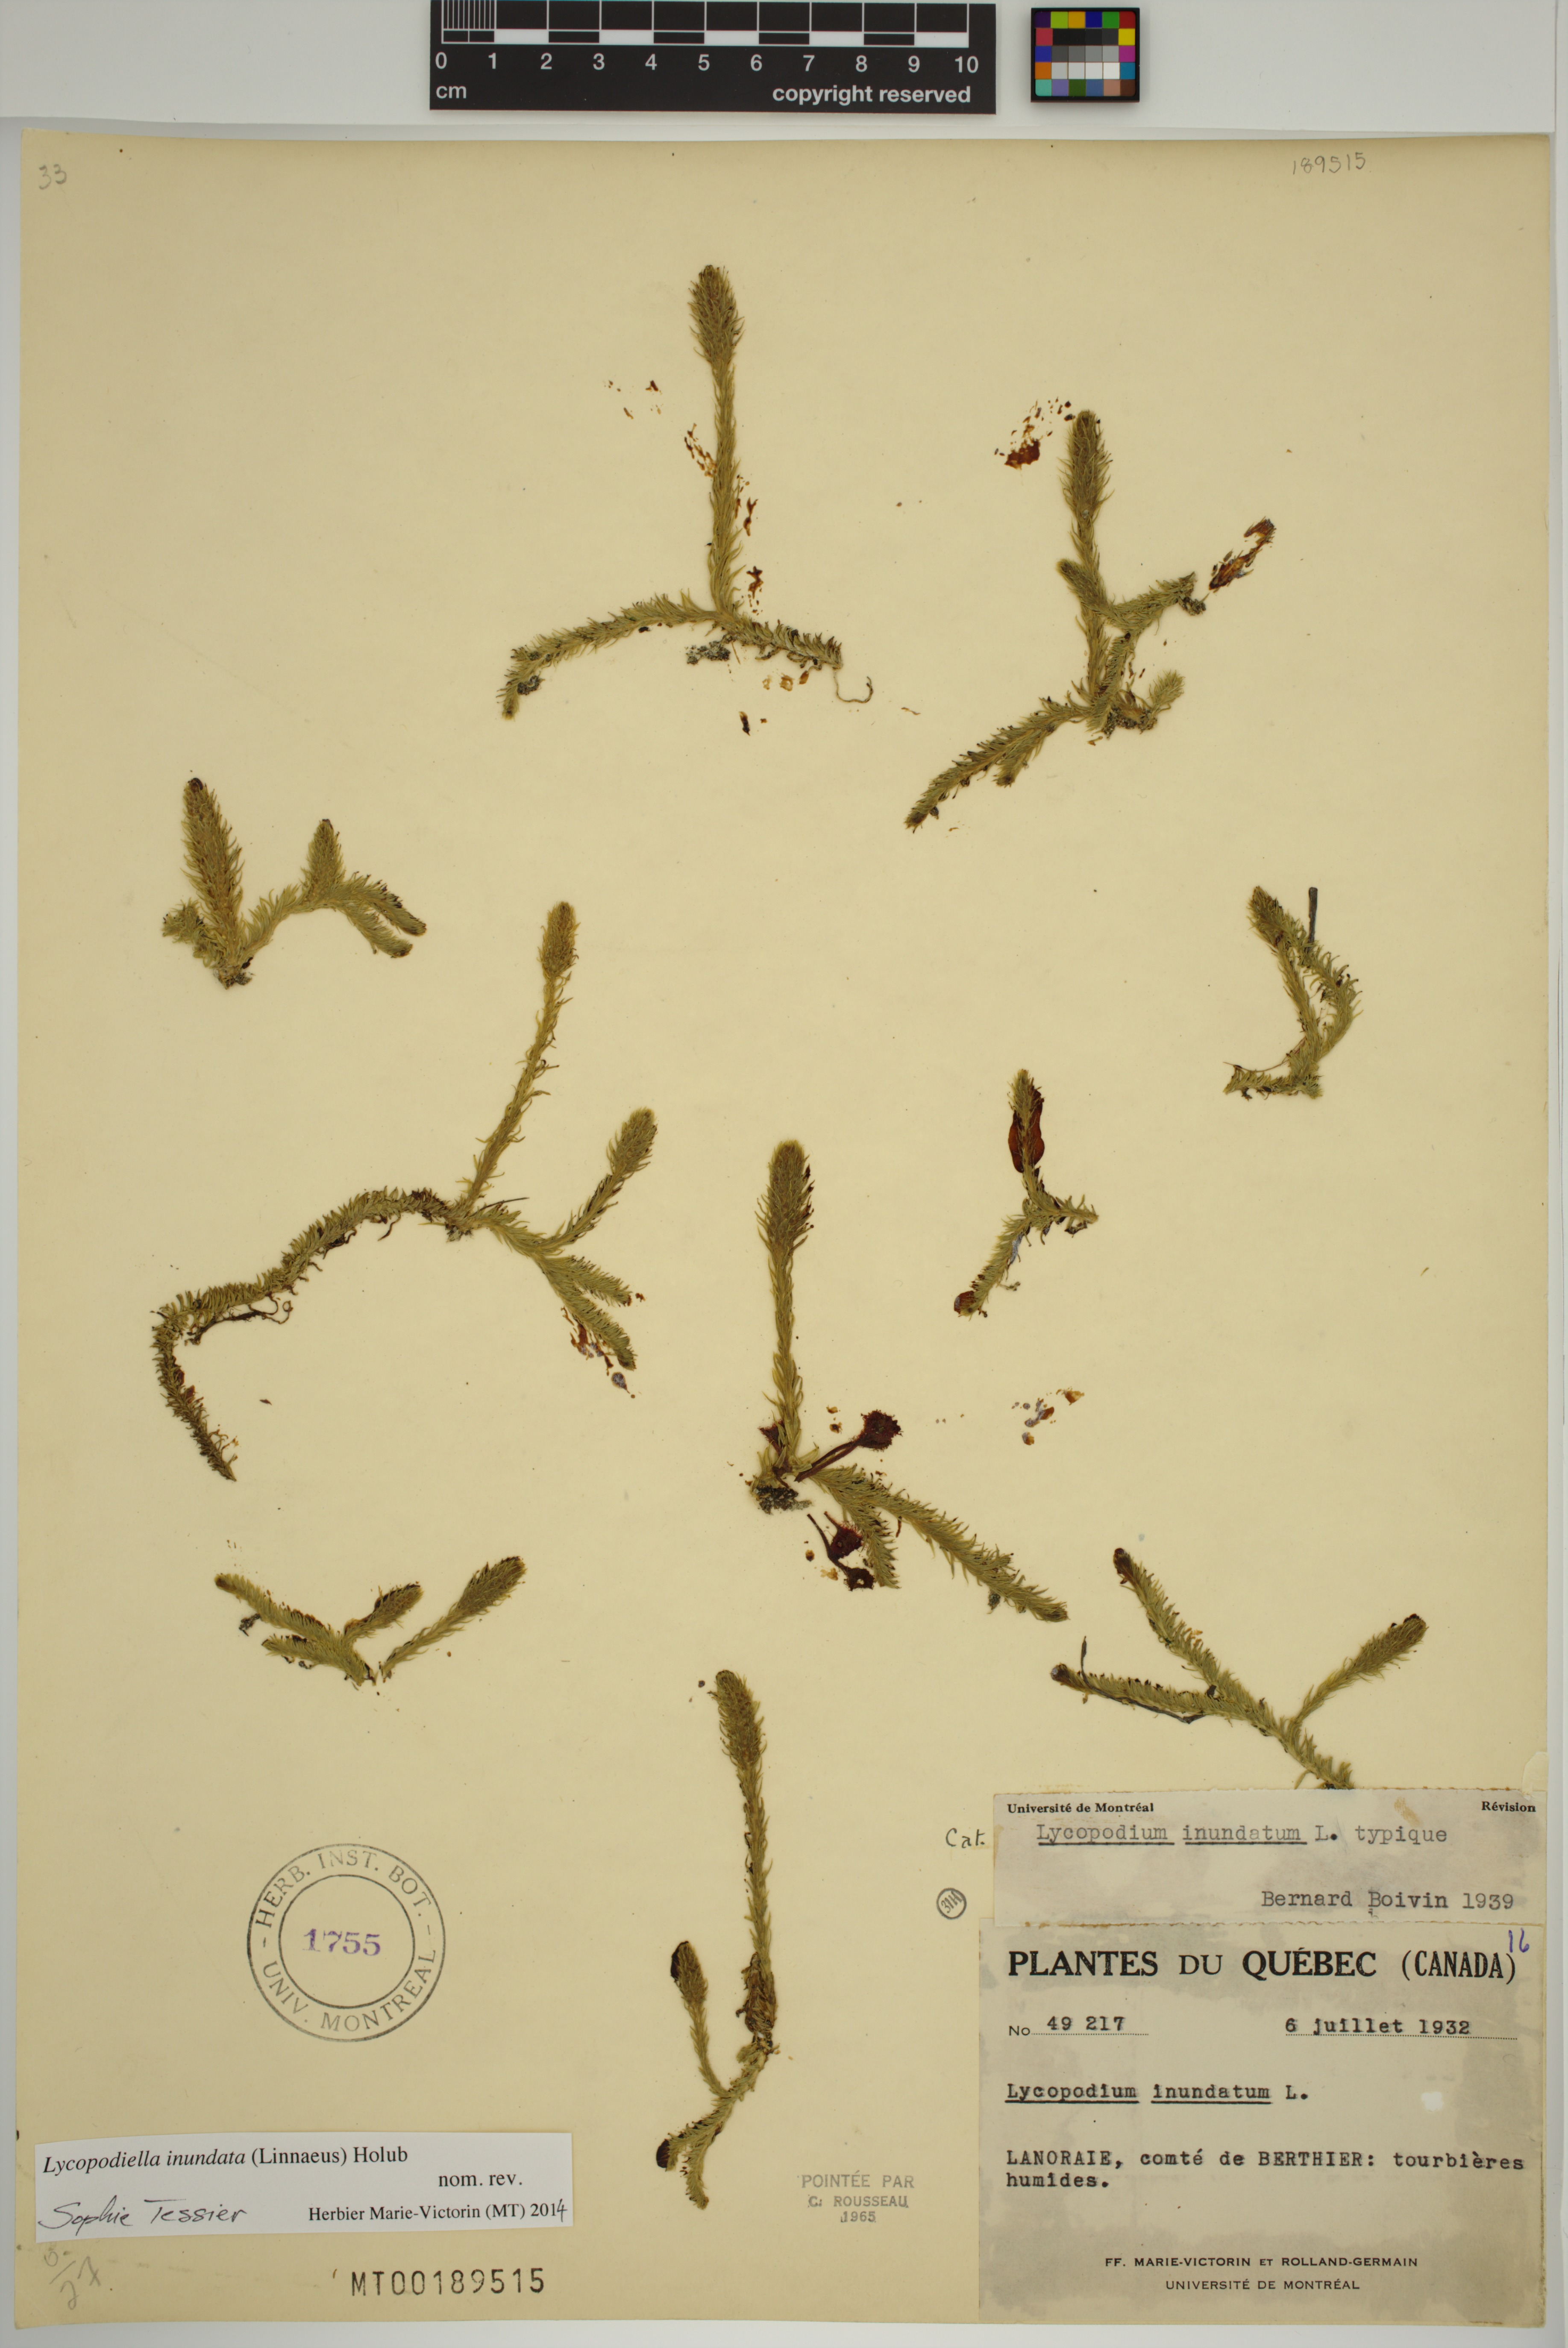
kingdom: Plantae
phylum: Tracheophyta
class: Lycopodiopsida
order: Lycopodiales
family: Lycopodiaceae
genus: Lycopodiella
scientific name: Lycopodiella inundata
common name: Marsh clubmoss
